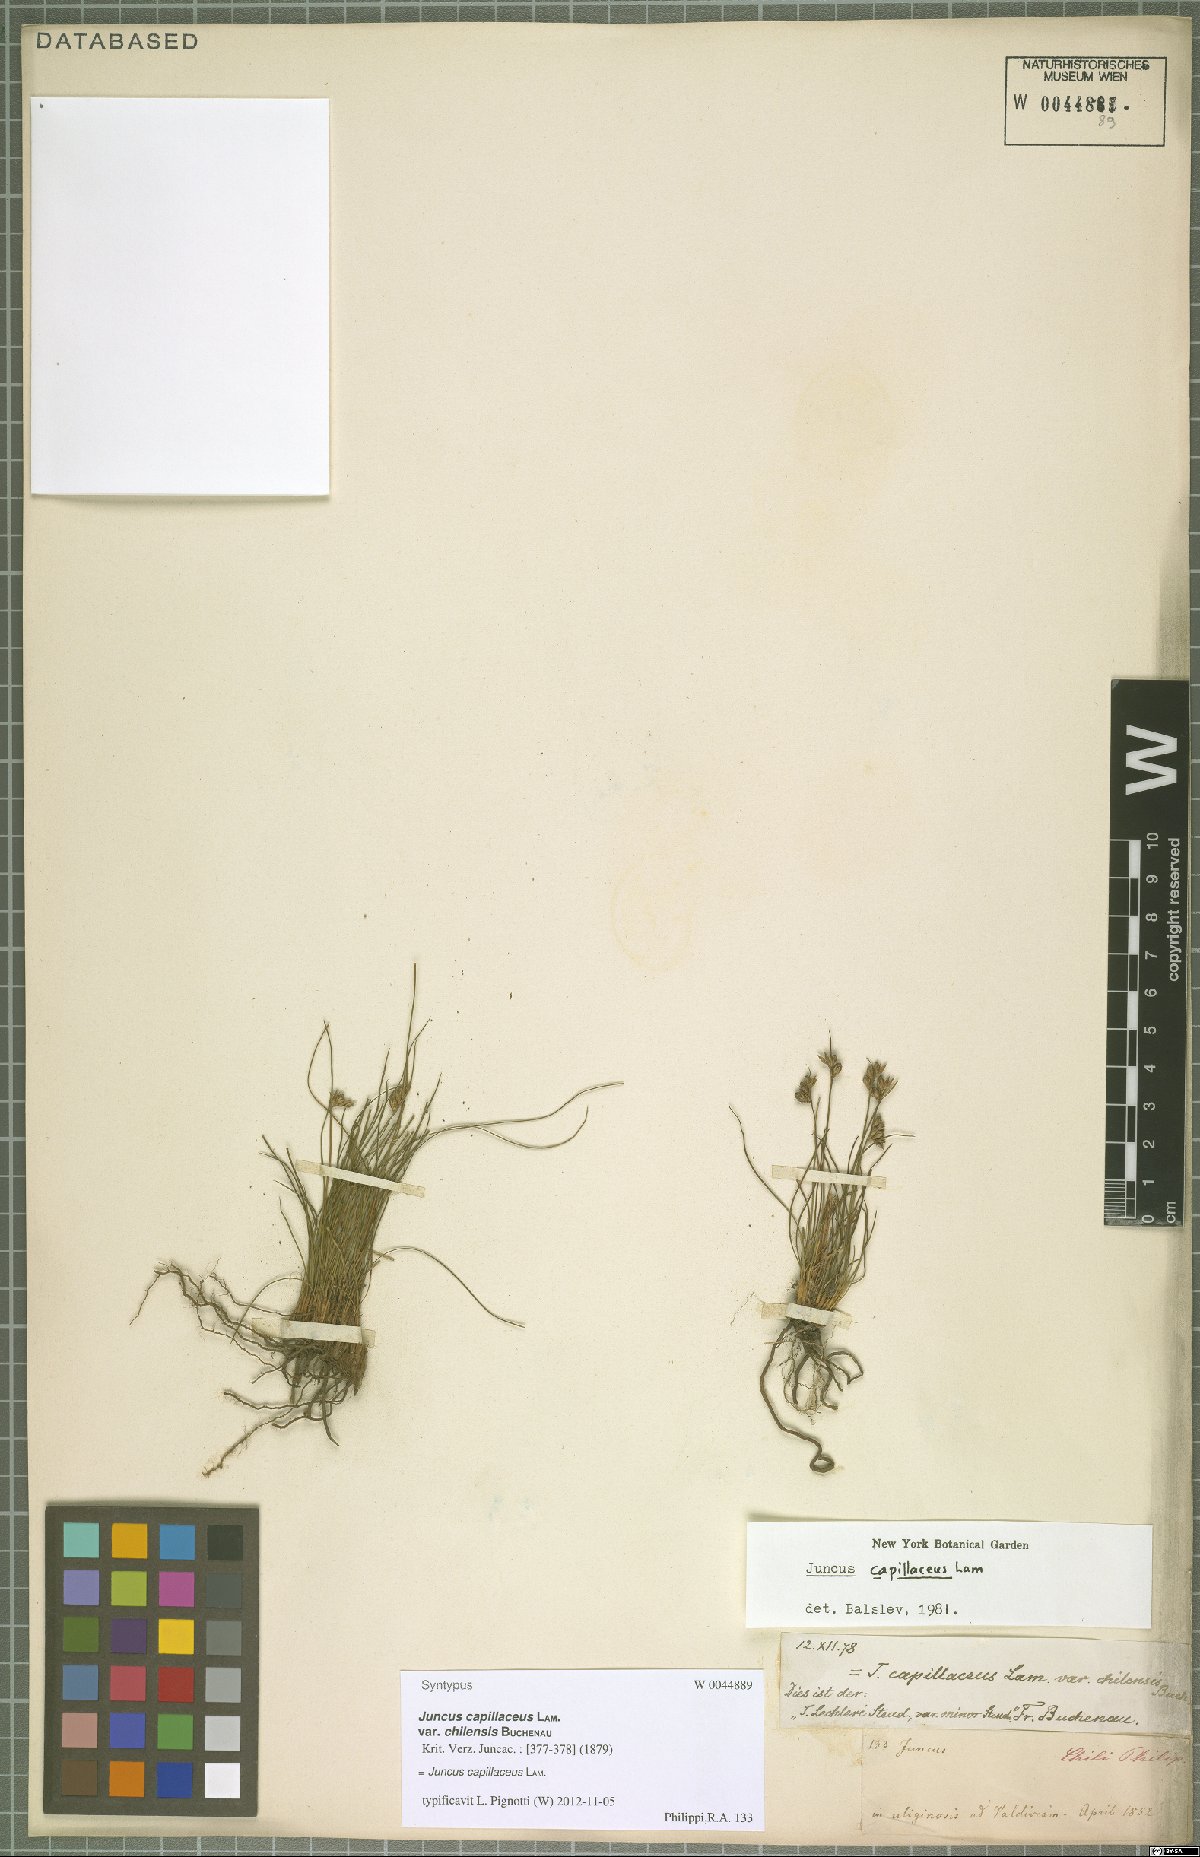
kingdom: Plantae
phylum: Tracheophyta
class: Liliopsida
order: Poales
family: Juncaceae
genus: Juncus
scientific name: Juncus capillaceus
